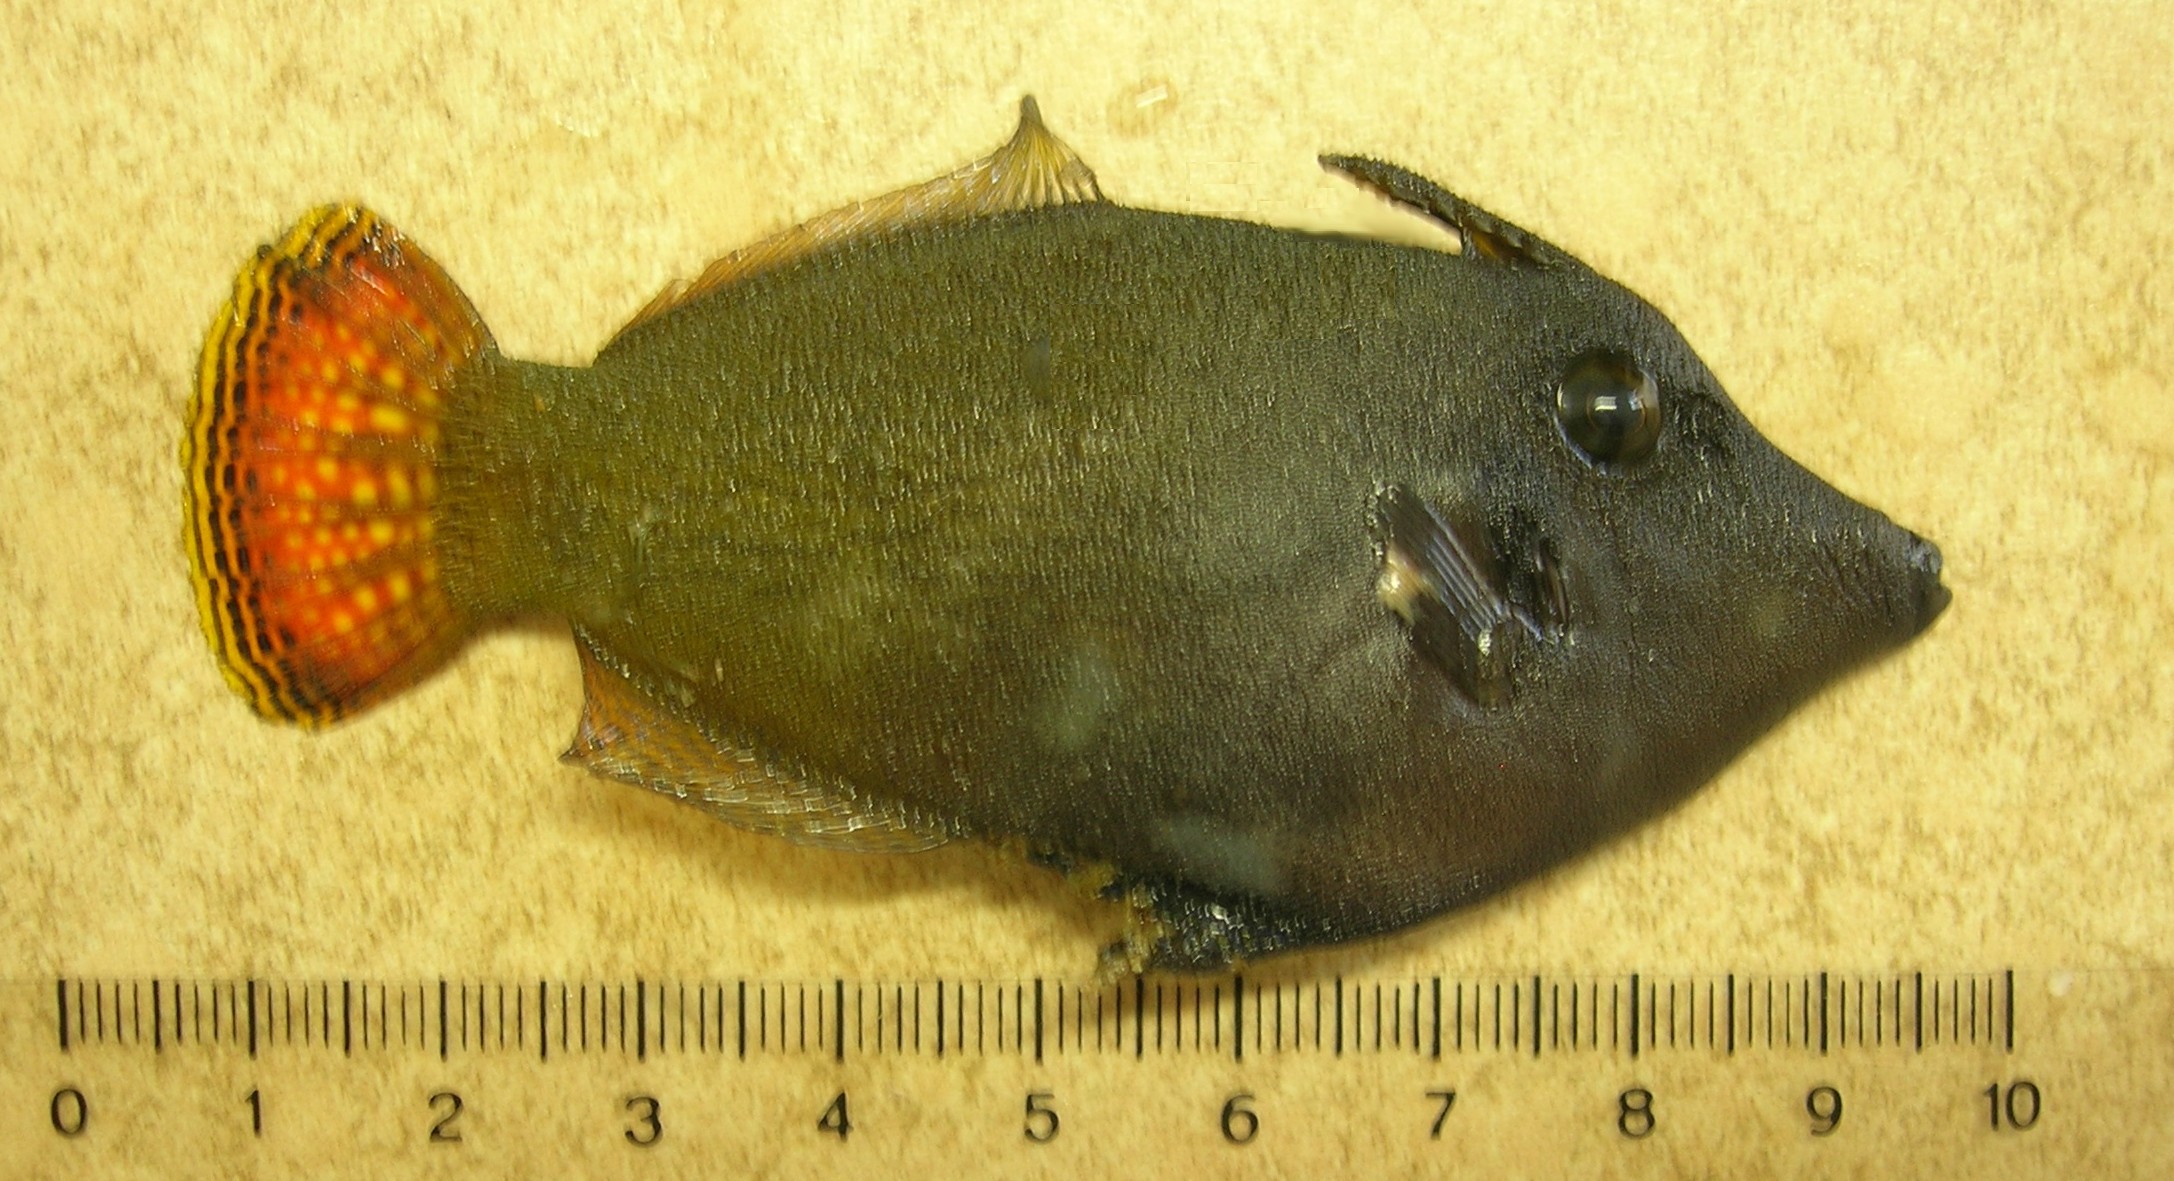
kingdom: Animalia
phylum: Chordata
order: Tetraodontiformes
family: Monacanthidae
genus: Pervagor
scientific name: Pervagor melanocephalus
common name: Black-headed leatherjacket
